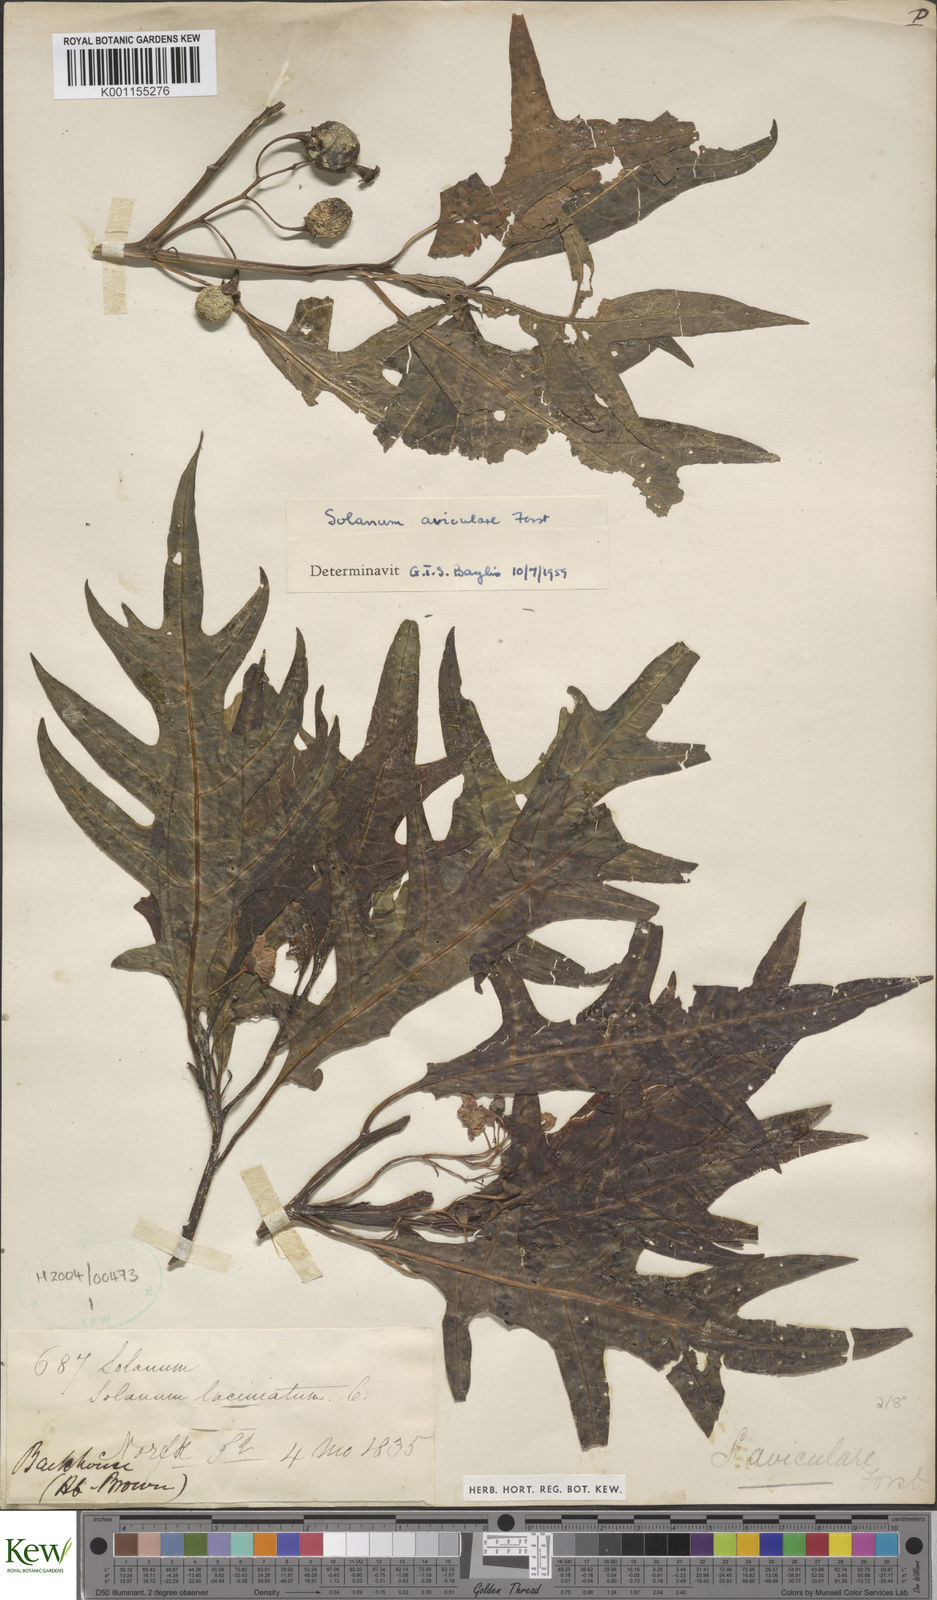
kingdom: Plantae
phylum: Tracheophyta
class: Magnoliopsida
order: Solanales
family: Solanaceae
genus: Solanum
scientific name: Solanum aviculare
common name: New zealand nightshade
